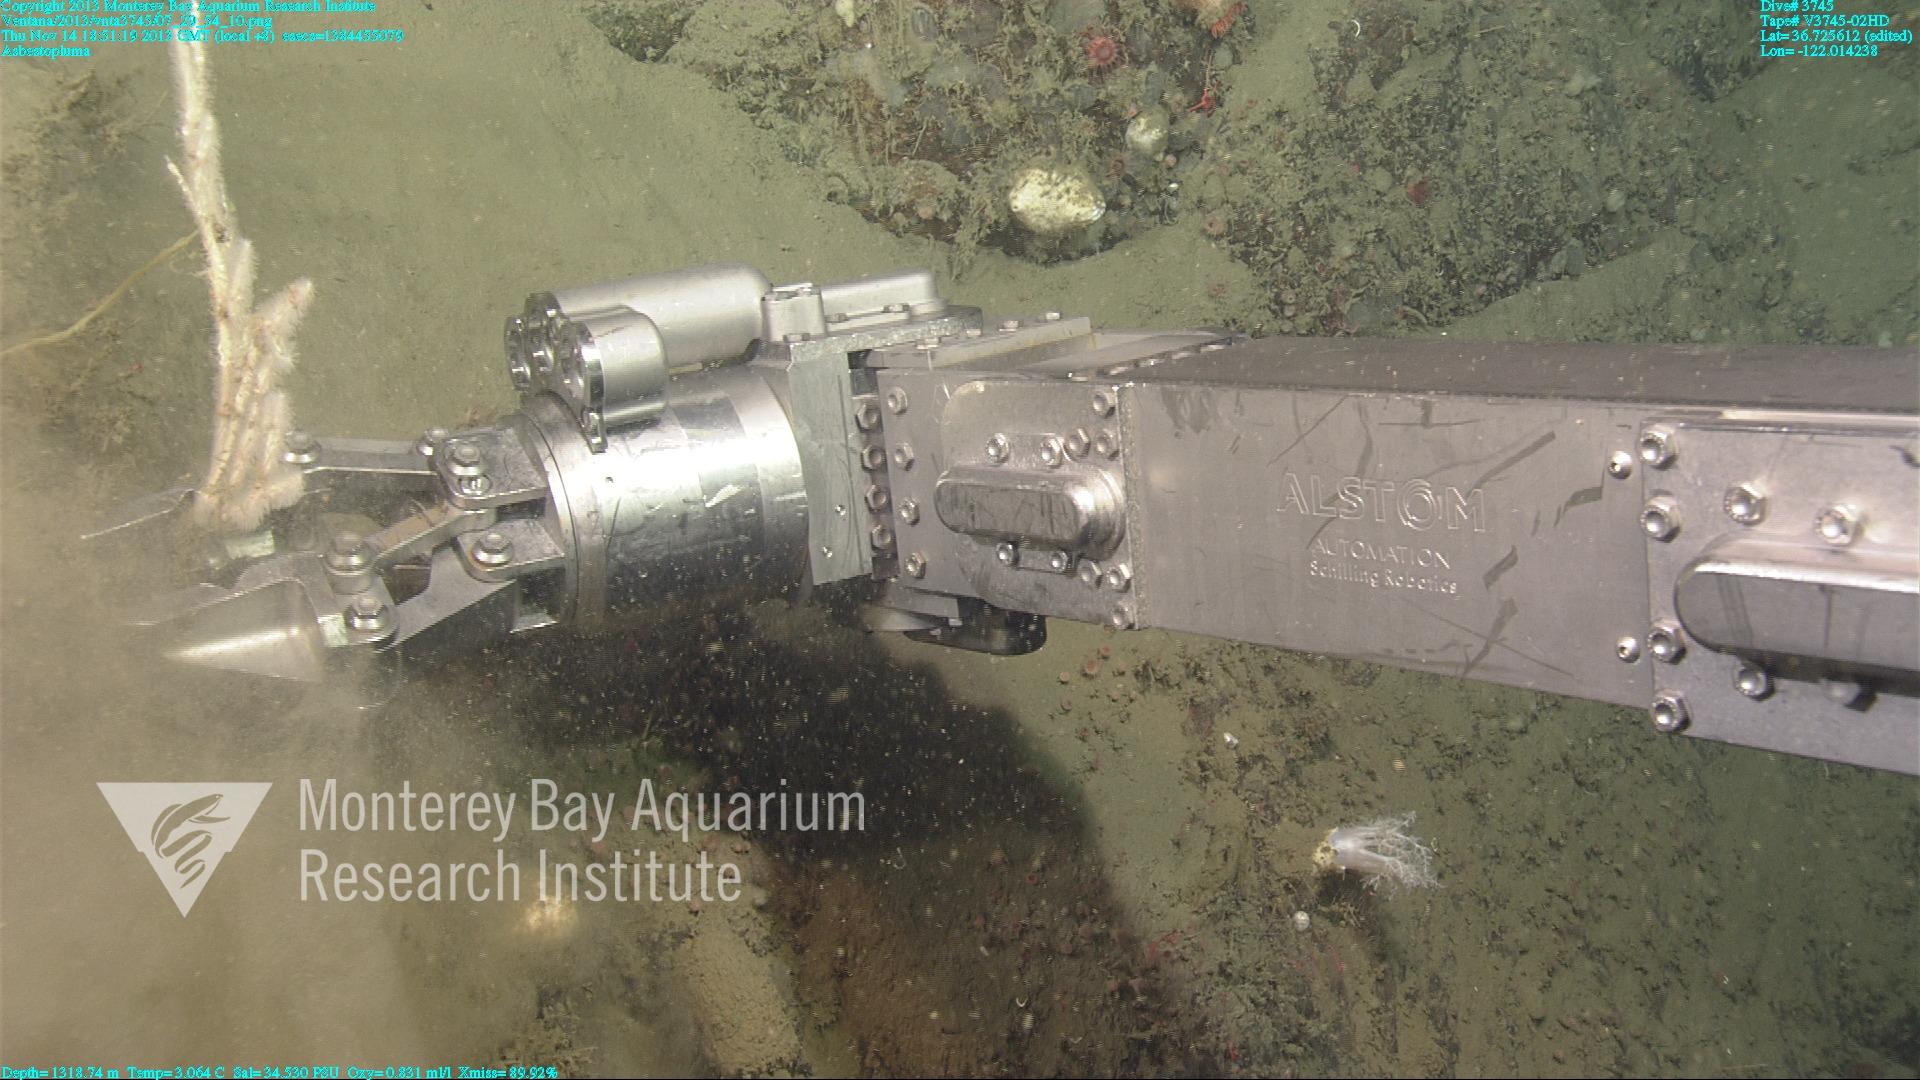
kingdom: Animalia
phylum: Porifera
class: Demospongiae
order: Poecilosclerida
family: Cladorhizidae
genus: Asbestopluma
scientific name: Asbestopluma
